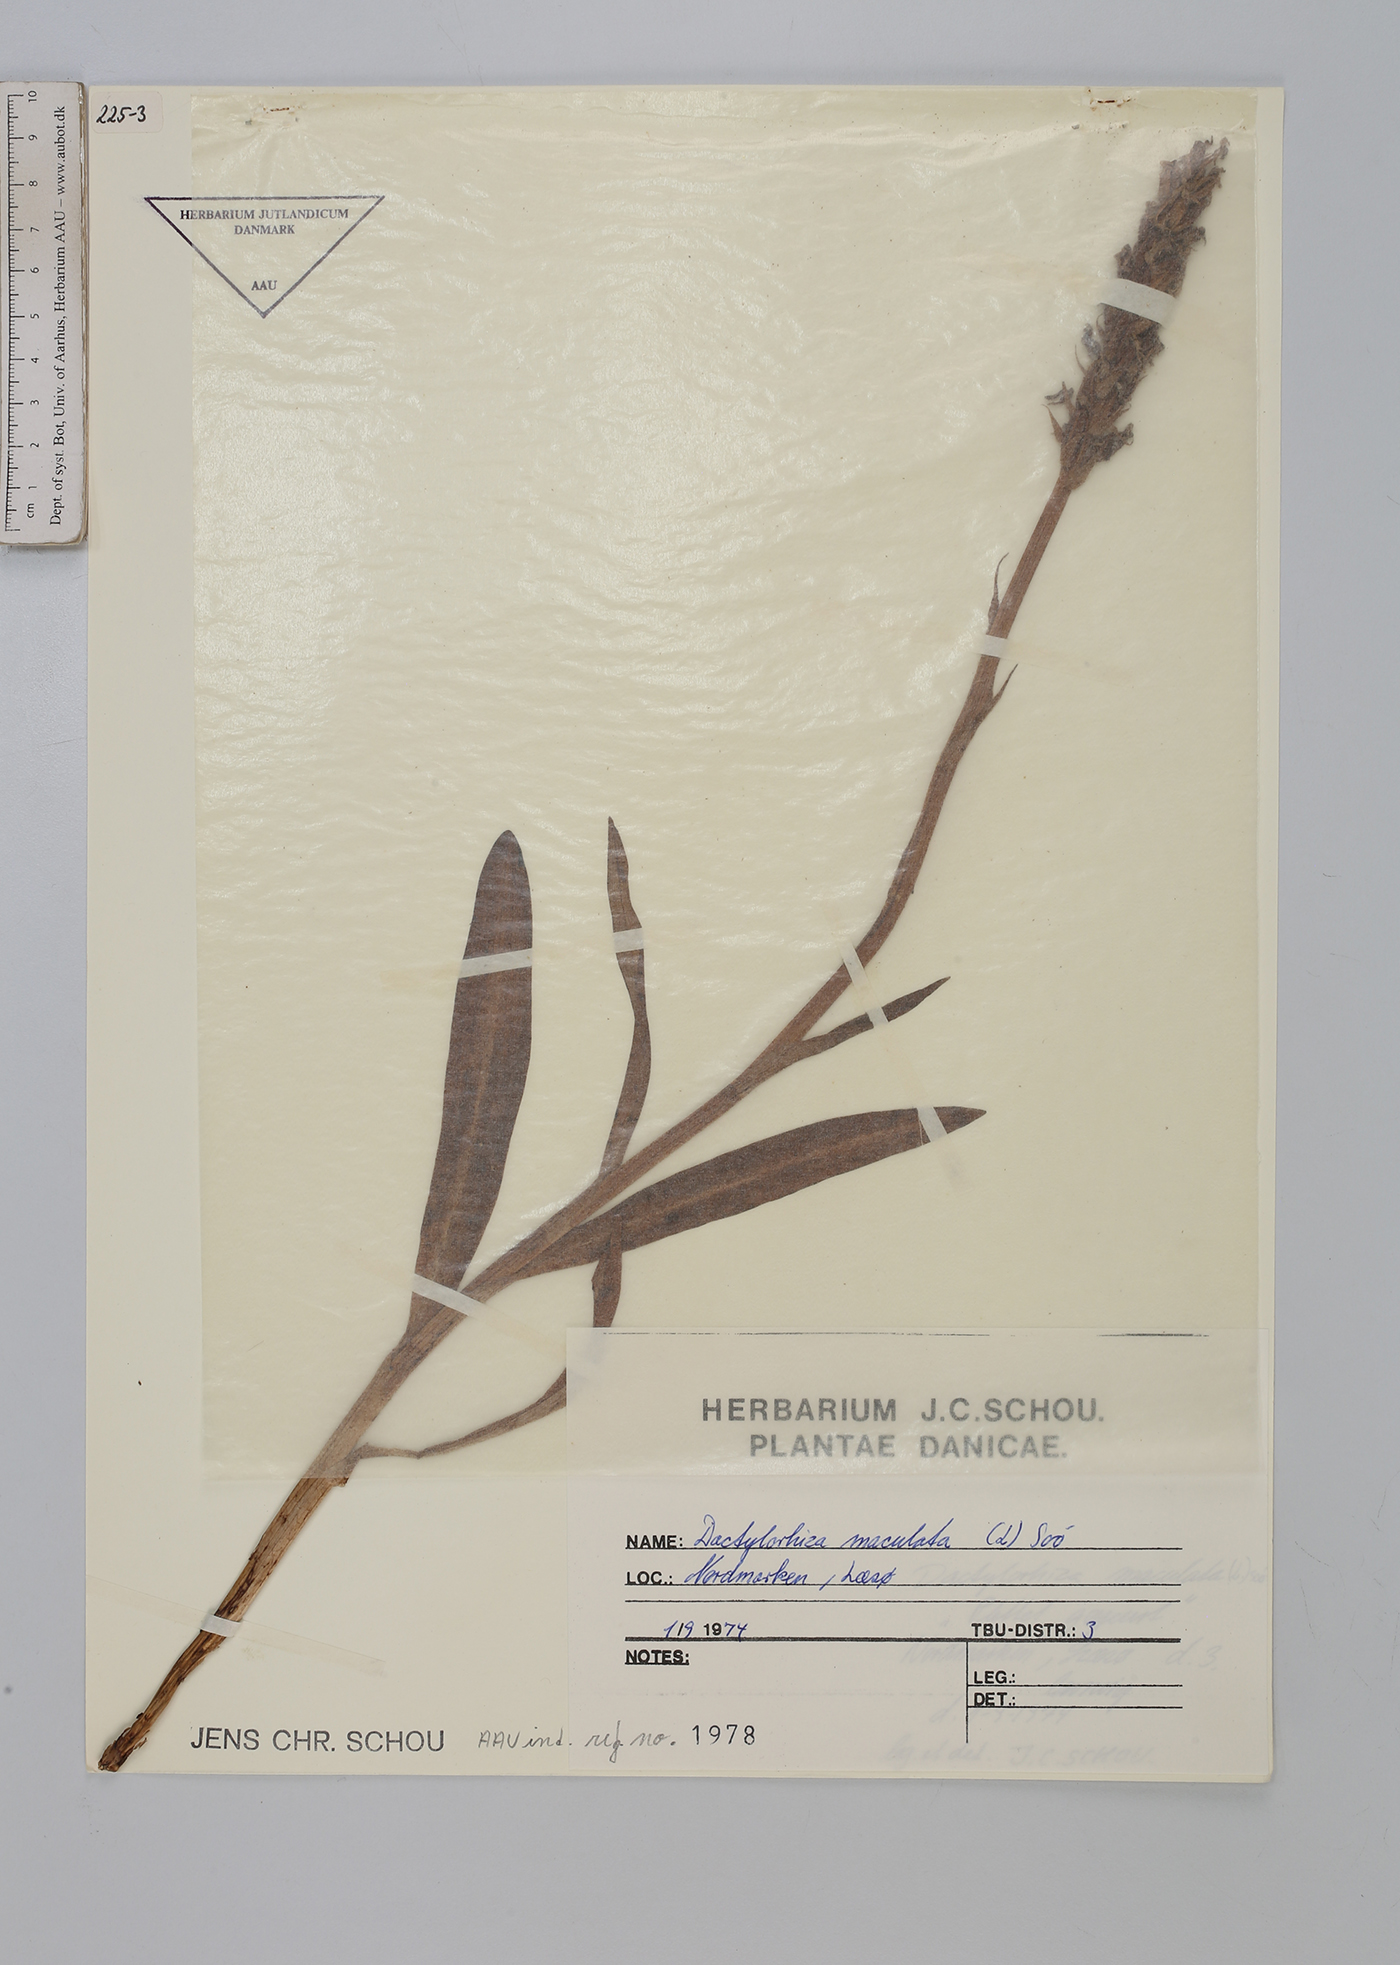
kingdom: Plantae
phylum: Tracheophyta
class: Liliopsida
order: Asparagales
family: Orchidaceae
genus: Dactylorhiza
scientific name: Dactylorhiza maculata
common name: Heath spotted-orchid
